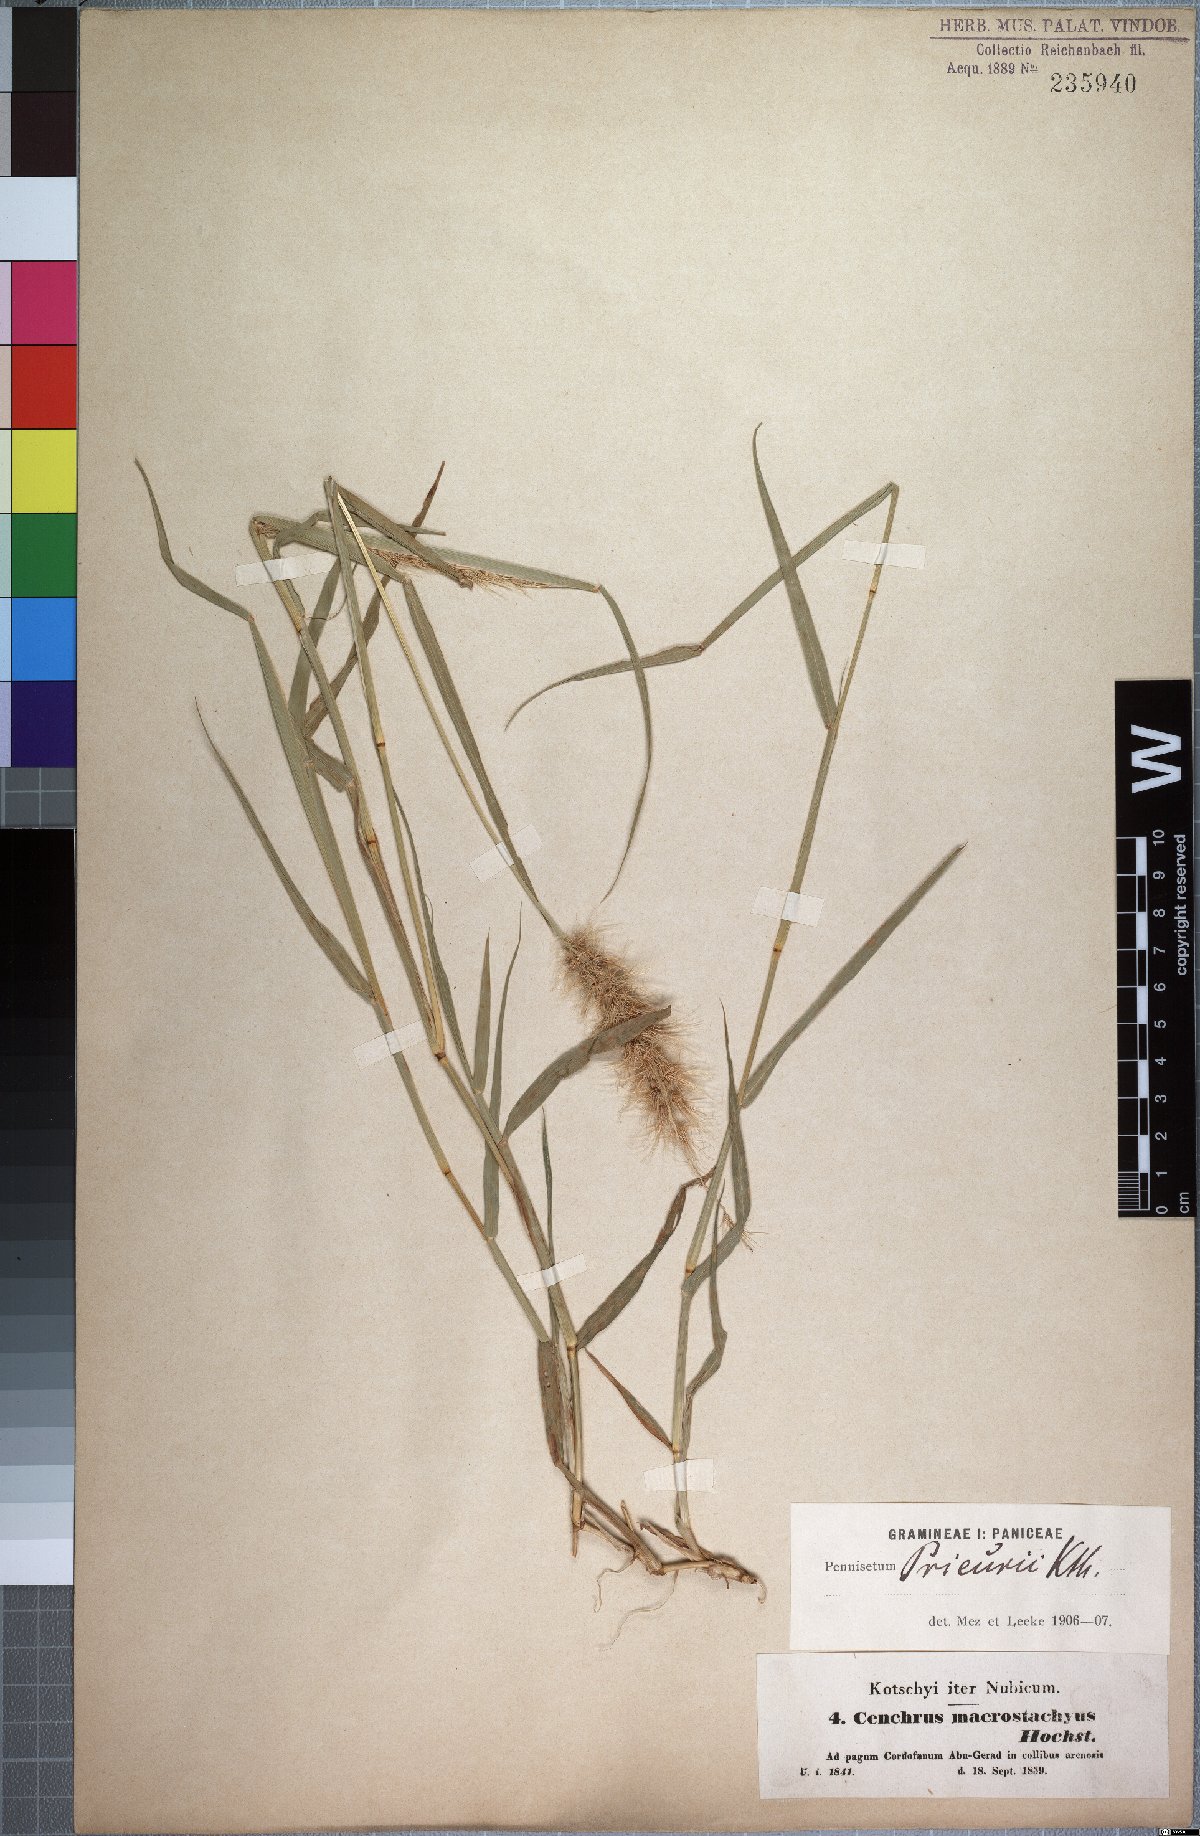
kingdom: Plantae
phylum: Tracheophyta
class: Liliopsida
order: Poales
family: Poaceae
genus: Cenchrus
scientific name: Cenchrus prieurii
